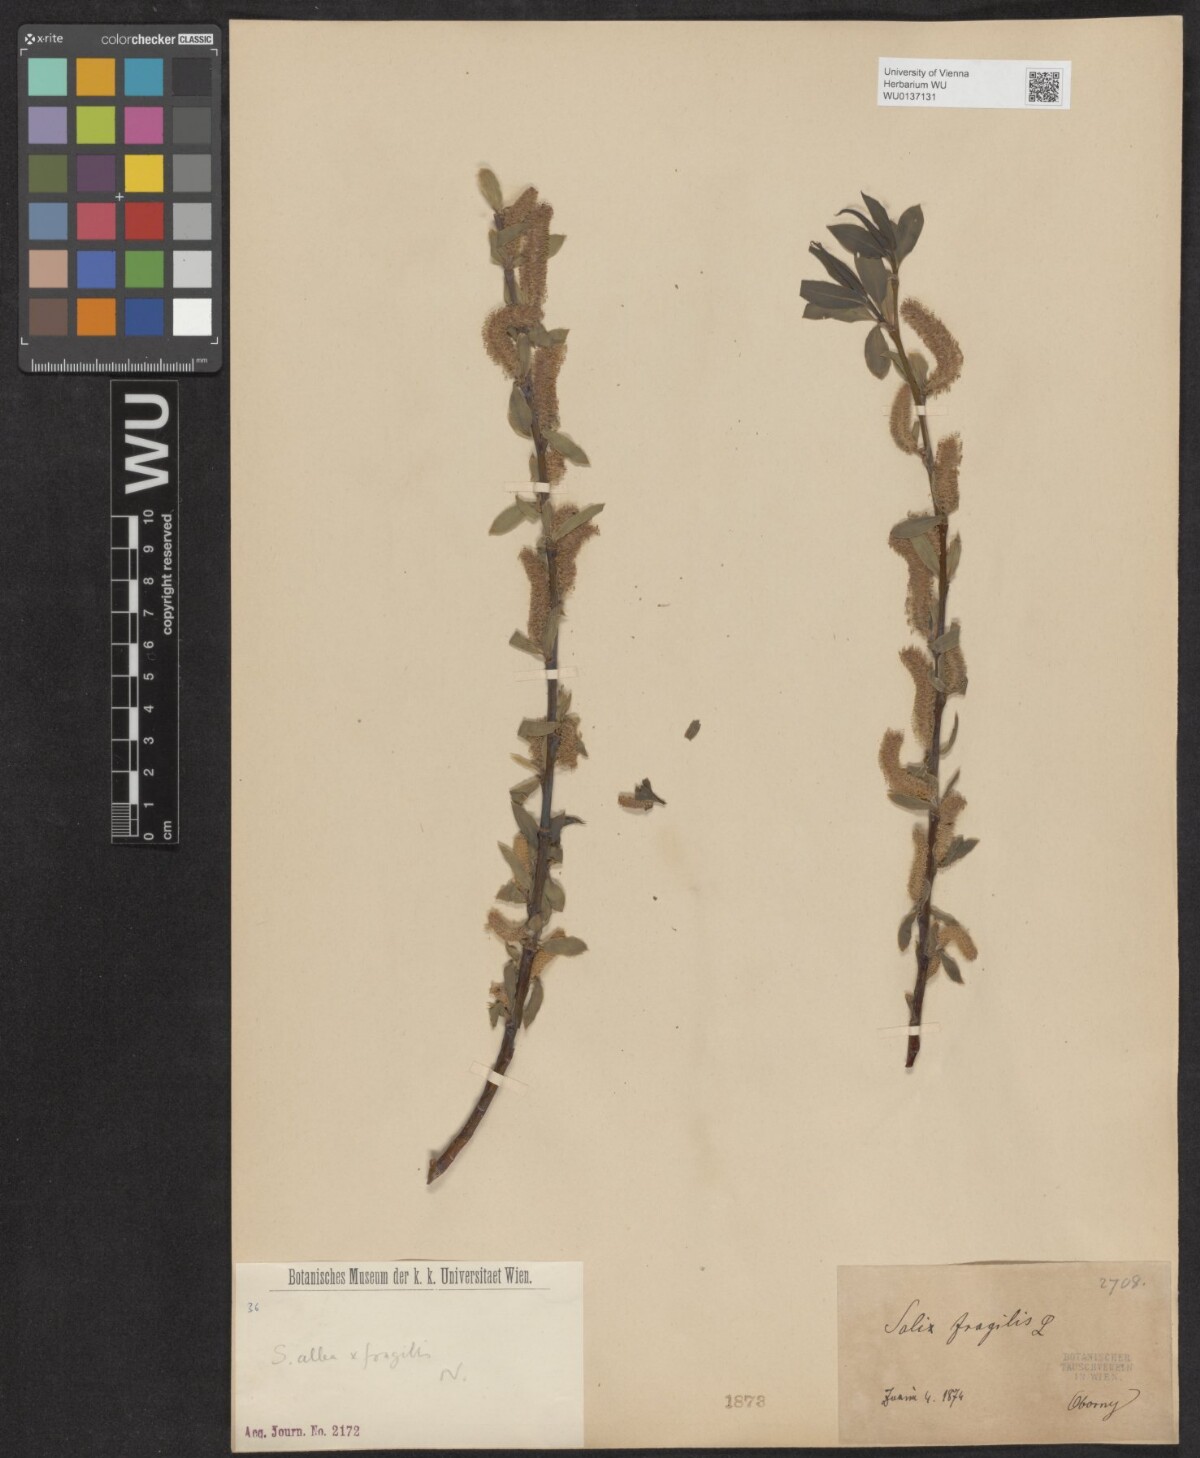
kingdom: Plantae
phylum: Tracheophyta
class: Magnoliopsida
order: Malpighiales
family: Salicaceae
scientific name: Salicaceae
